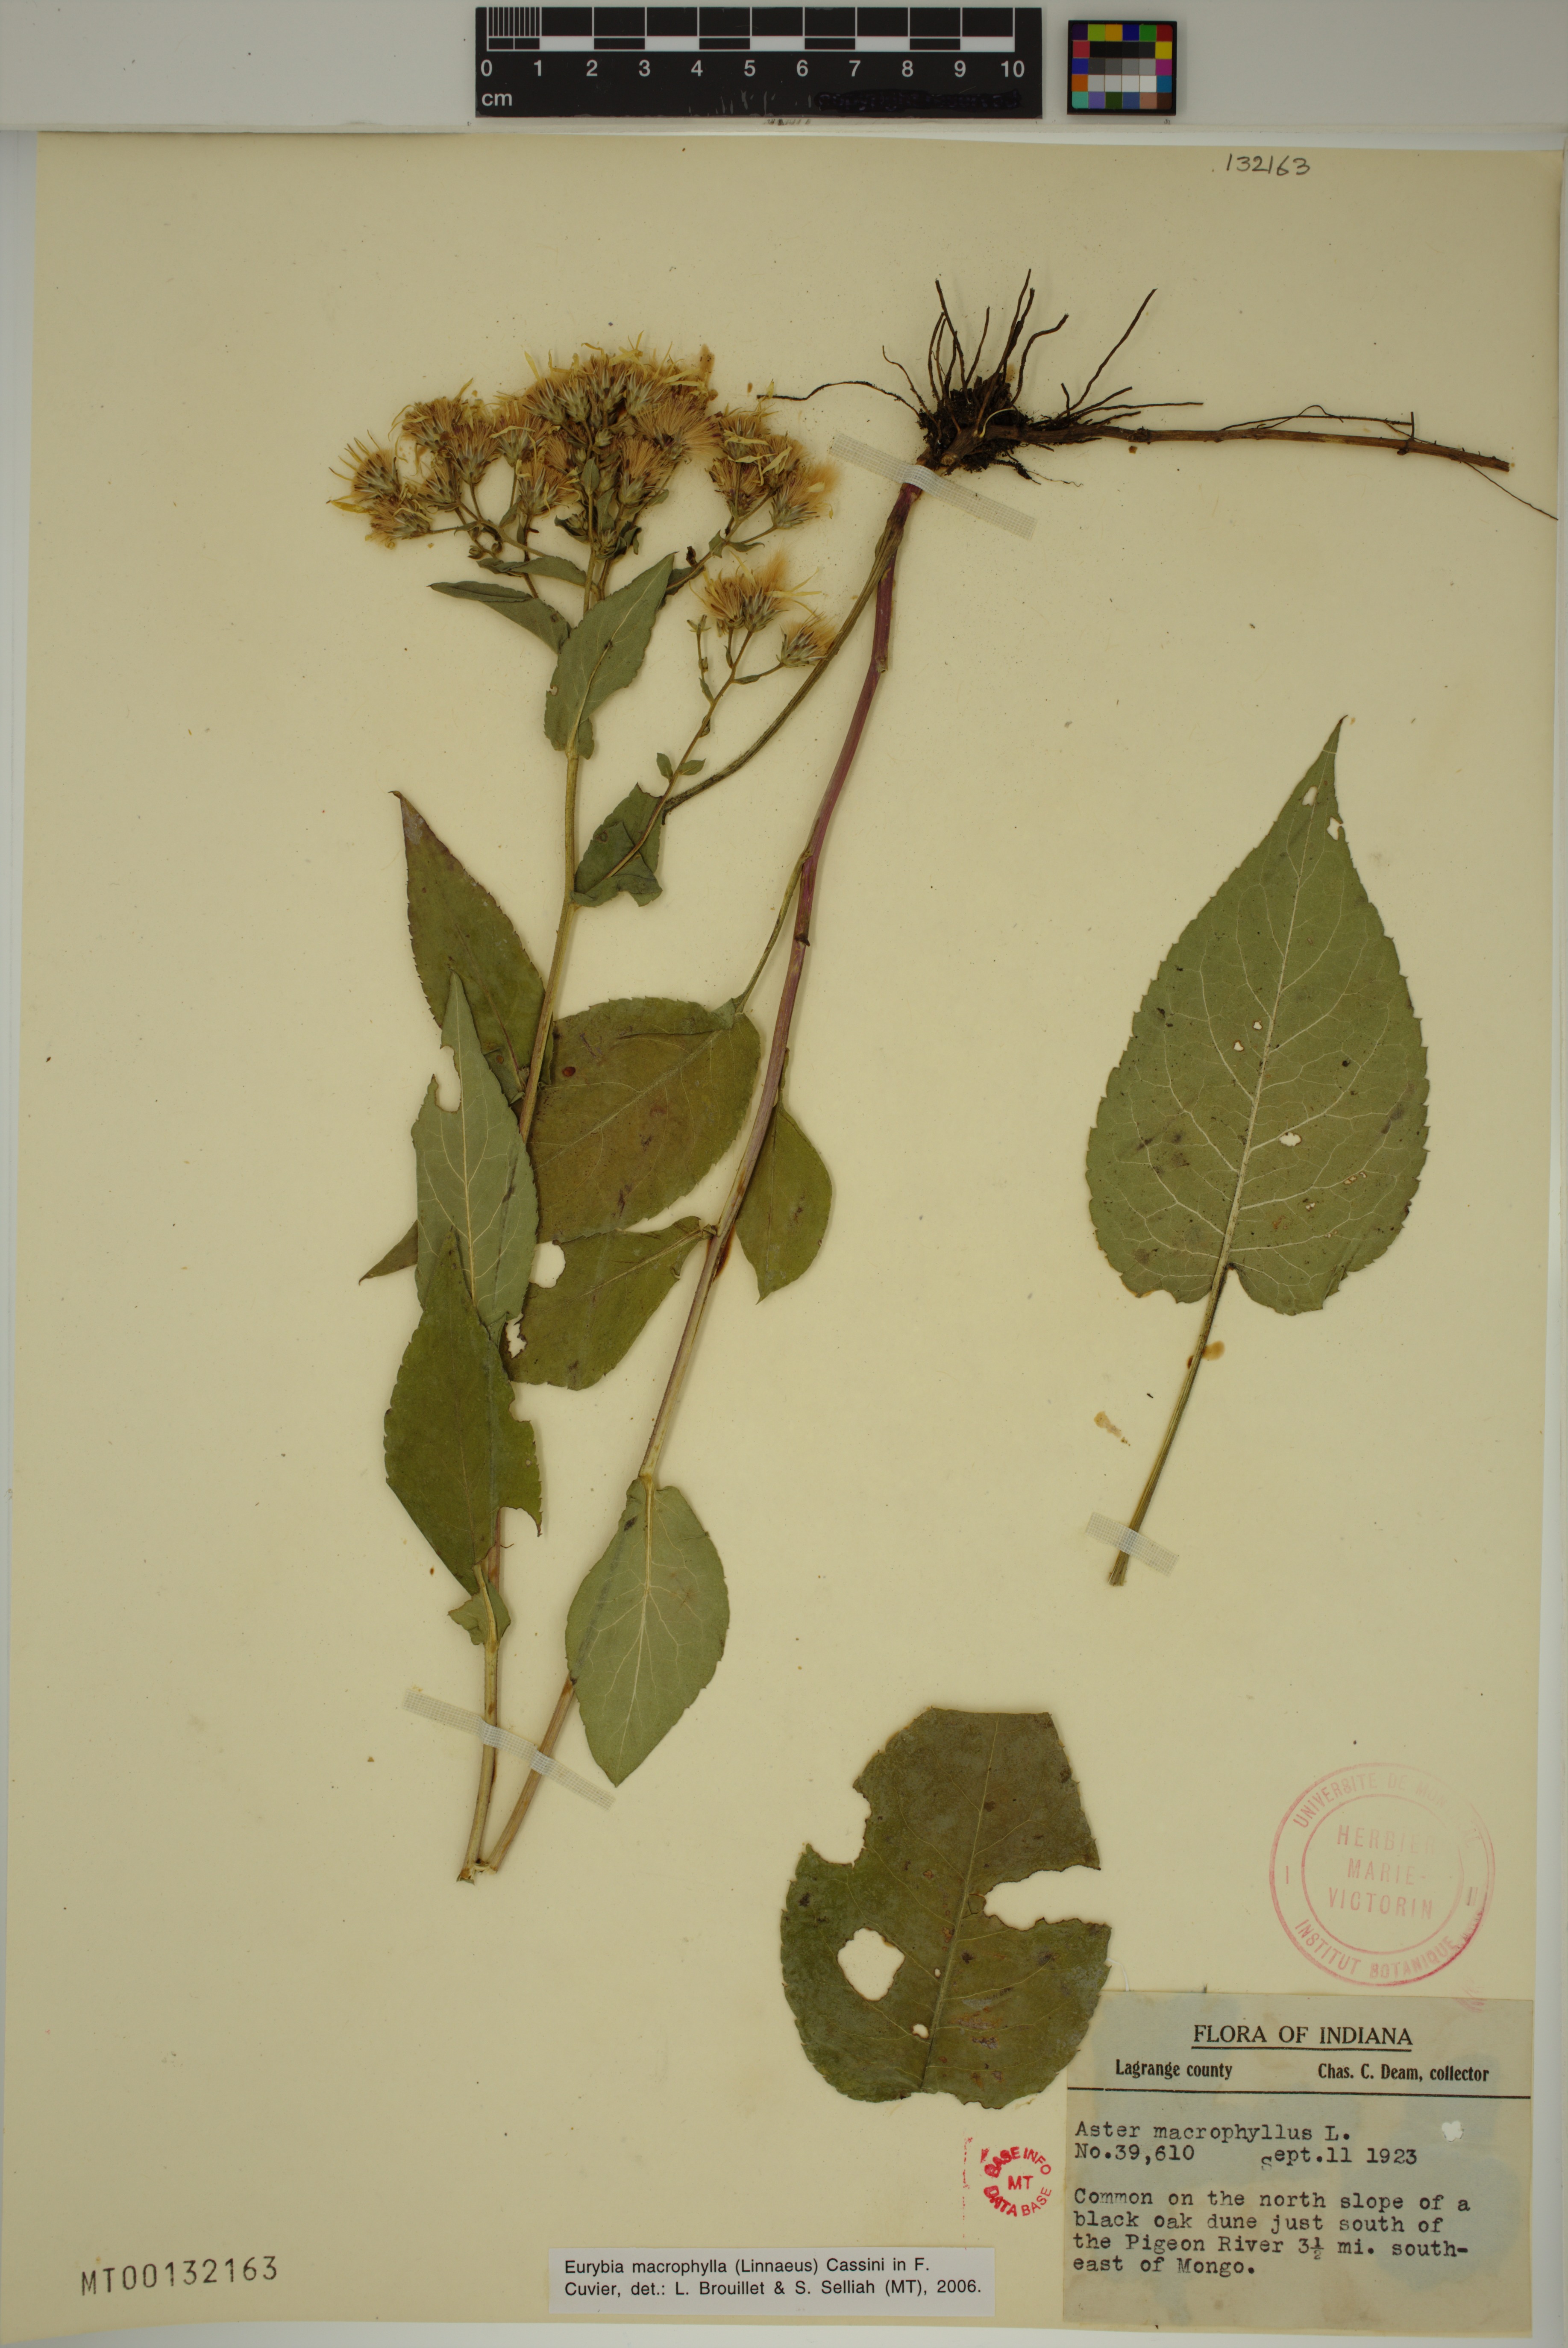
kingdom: Plantae
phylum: Tracheophyta
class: Magnoliopsida
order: Asterales
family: Asteraceae
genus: Eurybia
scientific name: Eurybia macrophylla
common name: Big-leaved aster
